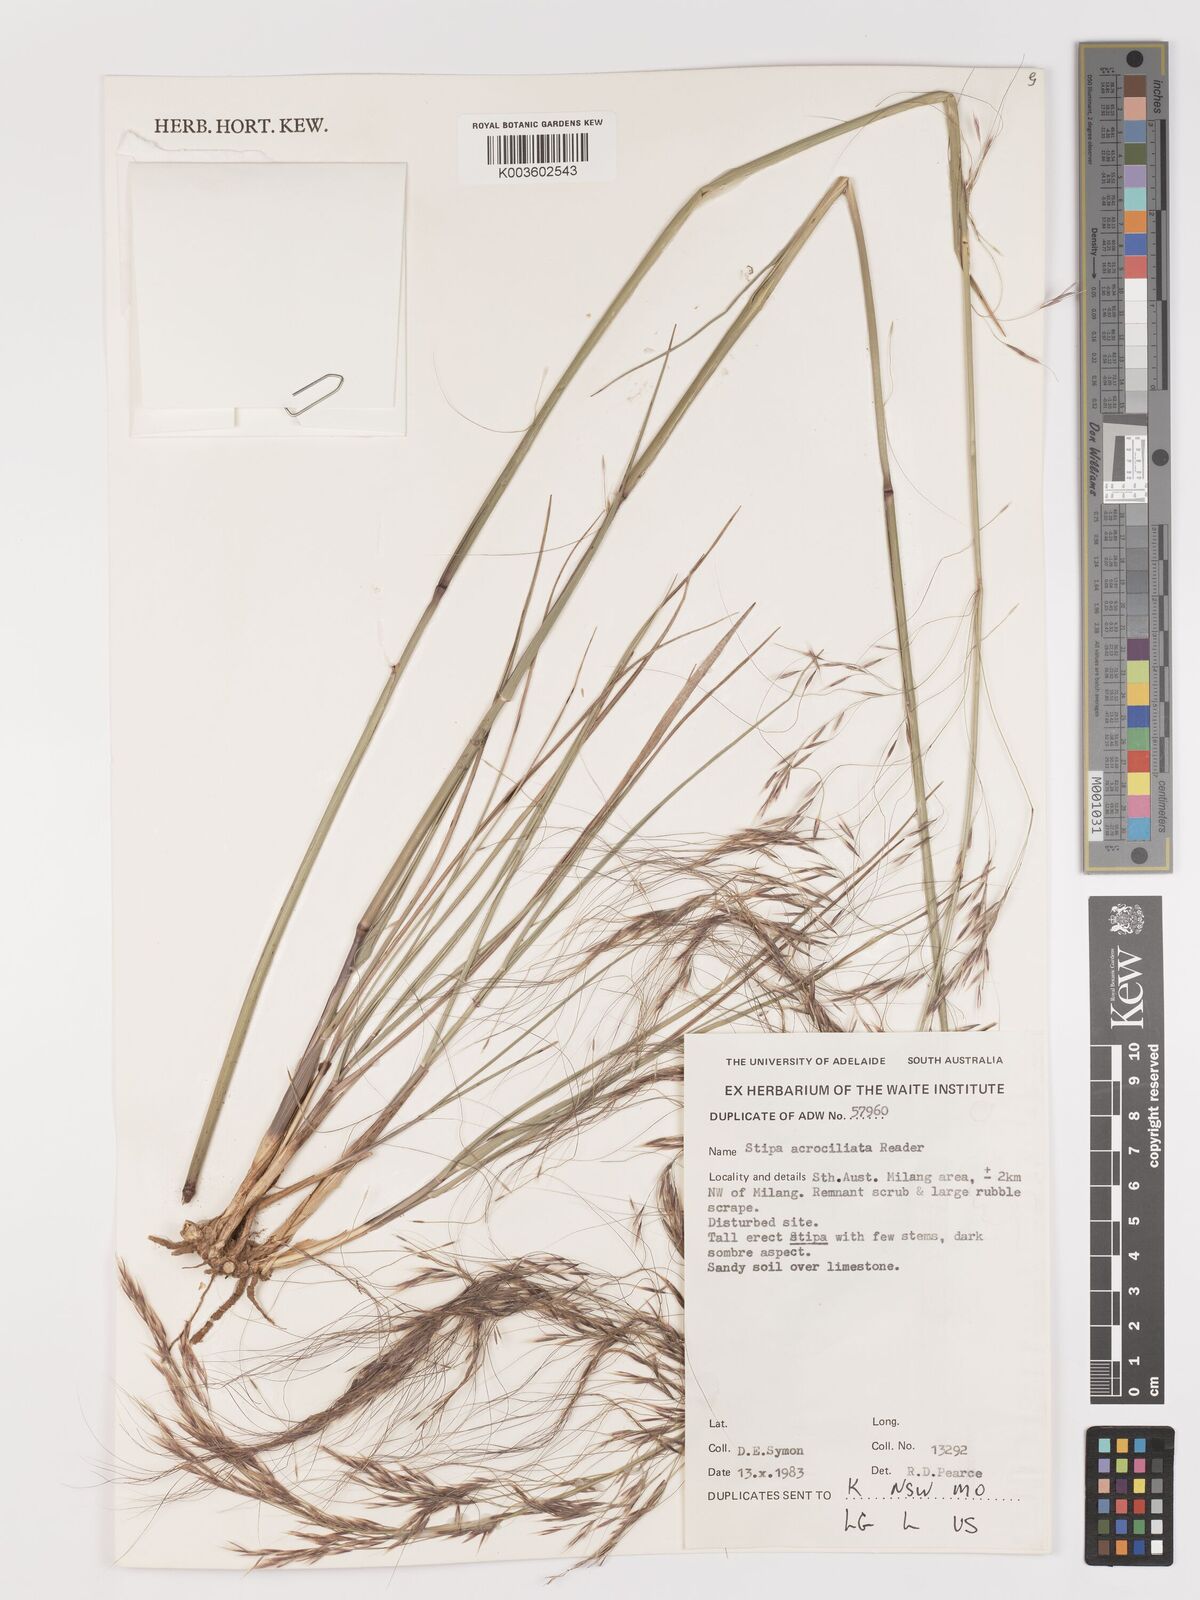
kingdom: Plantae
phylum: Tracheophyta
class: Liliopsida
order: Poales
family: Poaceae
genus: Austrostipa
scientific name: Austrostipa acrociliata
